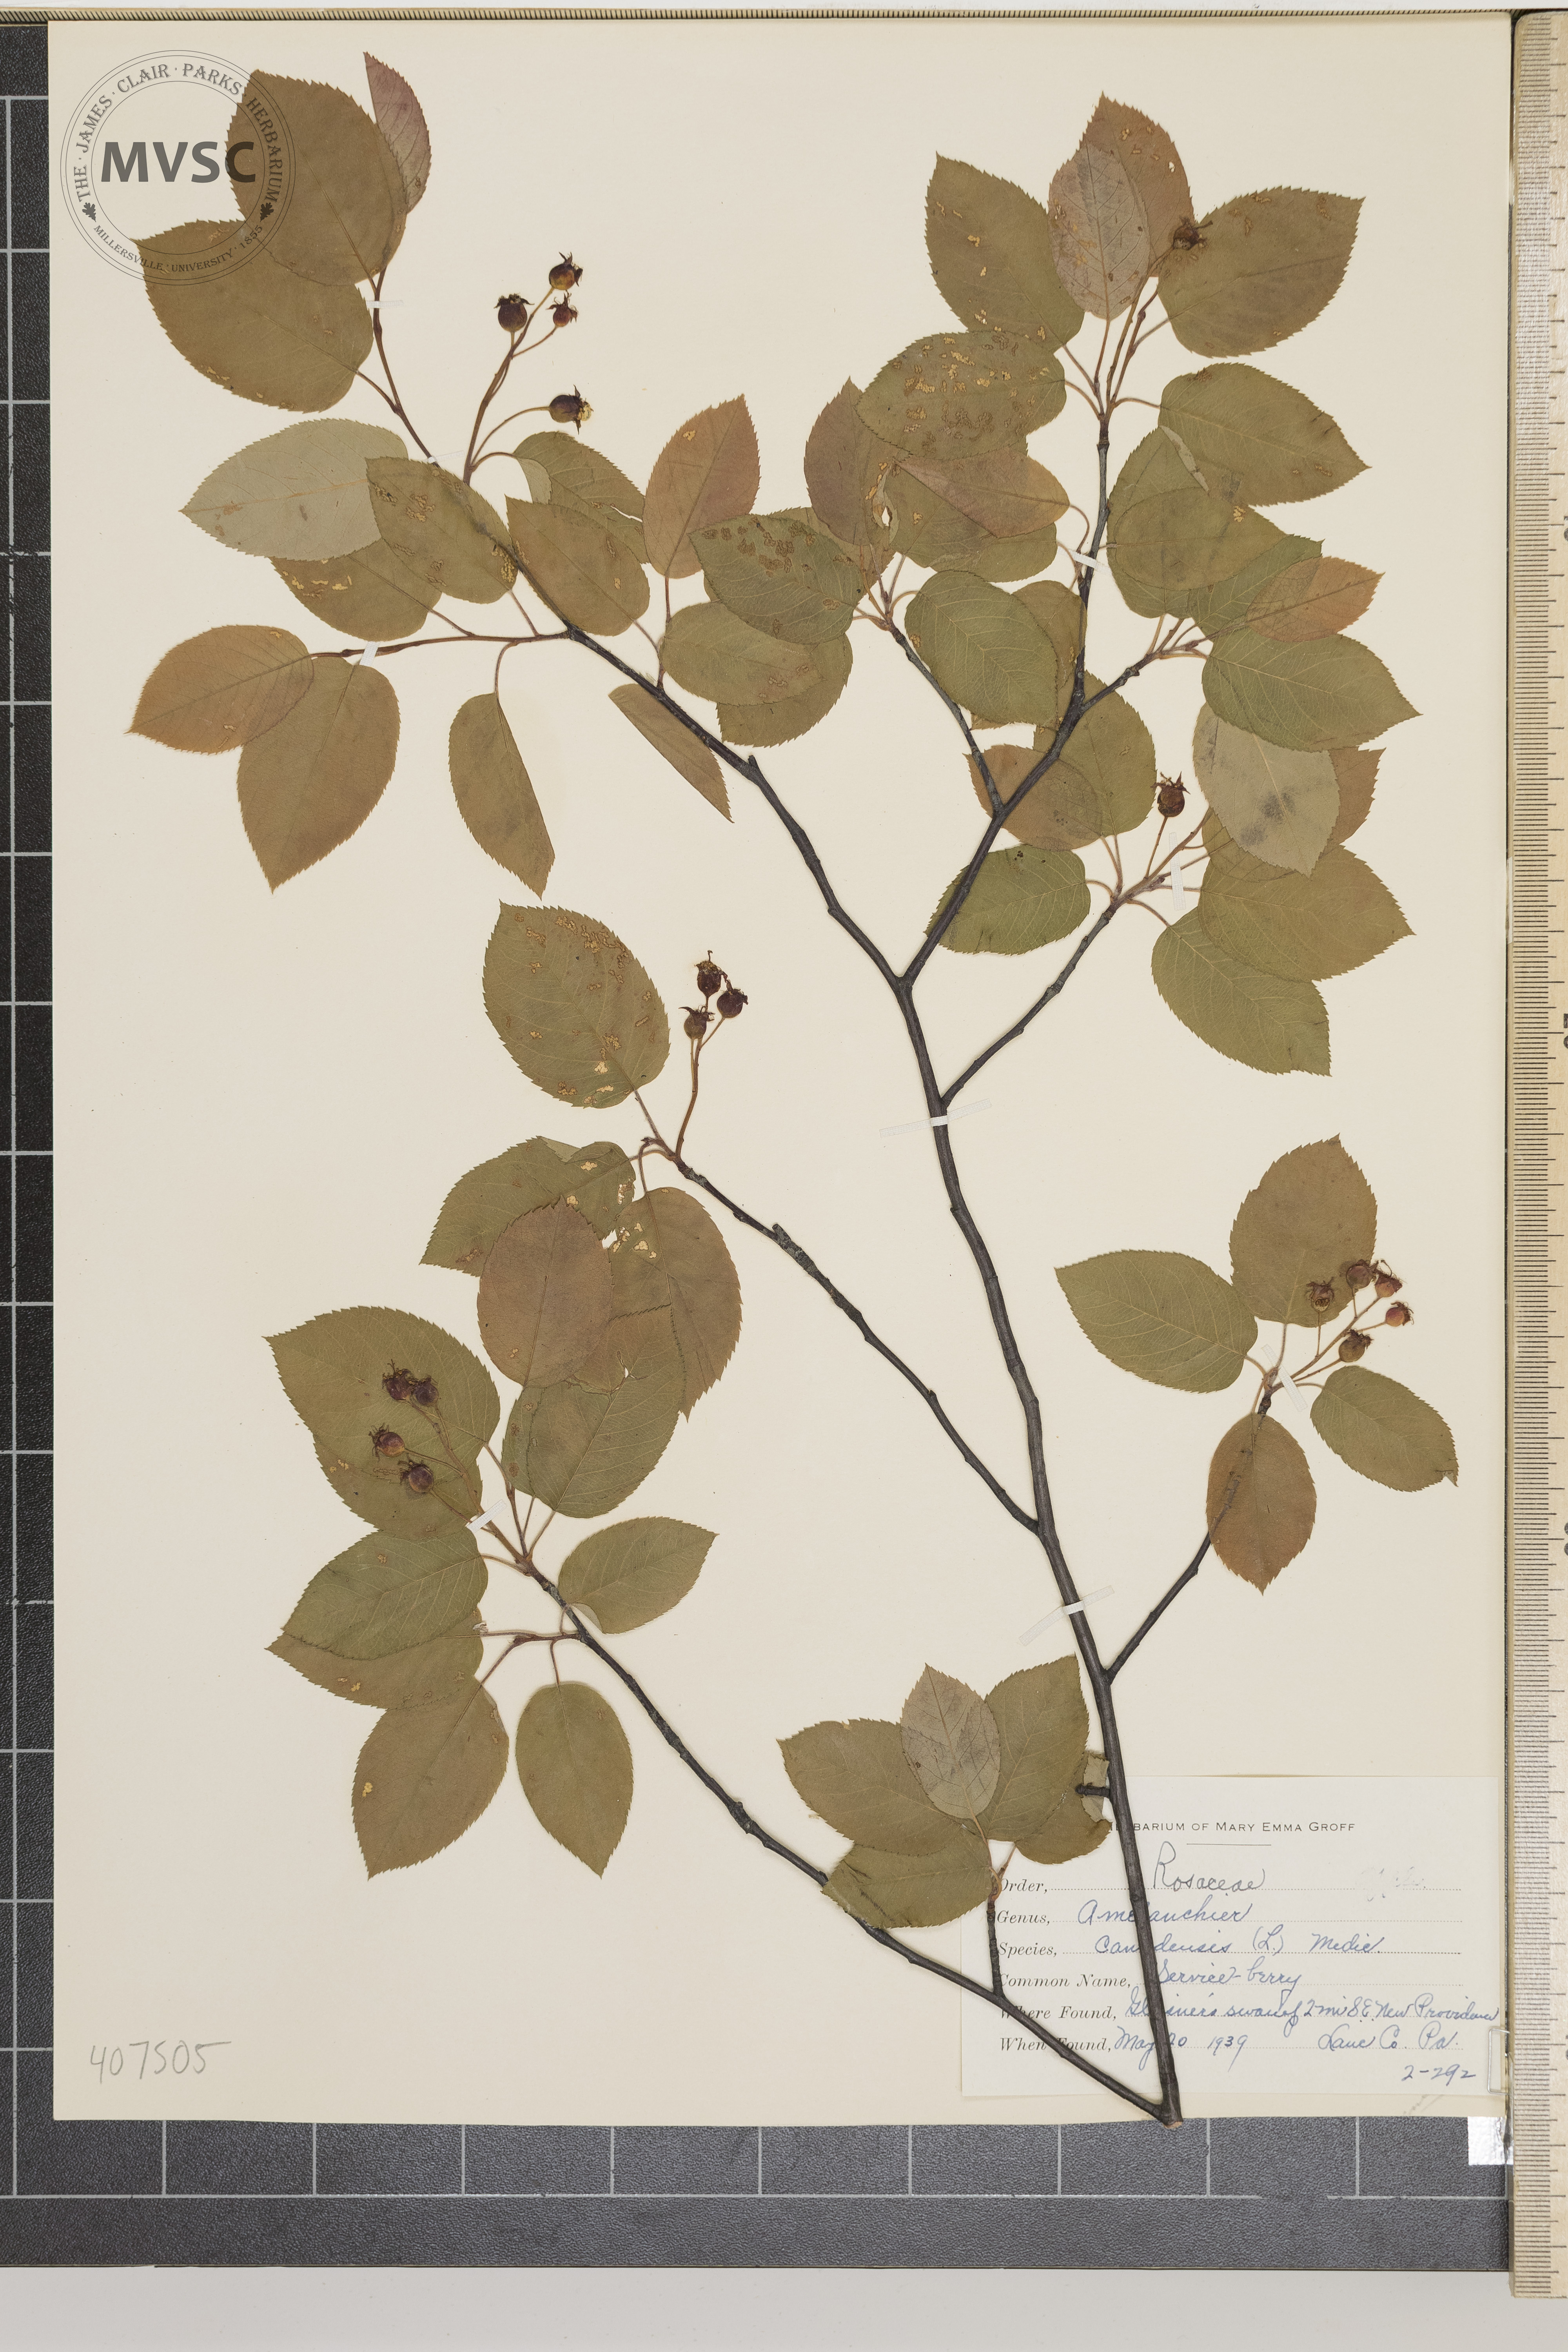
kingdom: Plantae
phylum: Tracheophyta
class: Magnoliopsida
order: Rosales
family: Rosaceae
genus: Amelanchier
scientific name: Amelanchier canadensis
